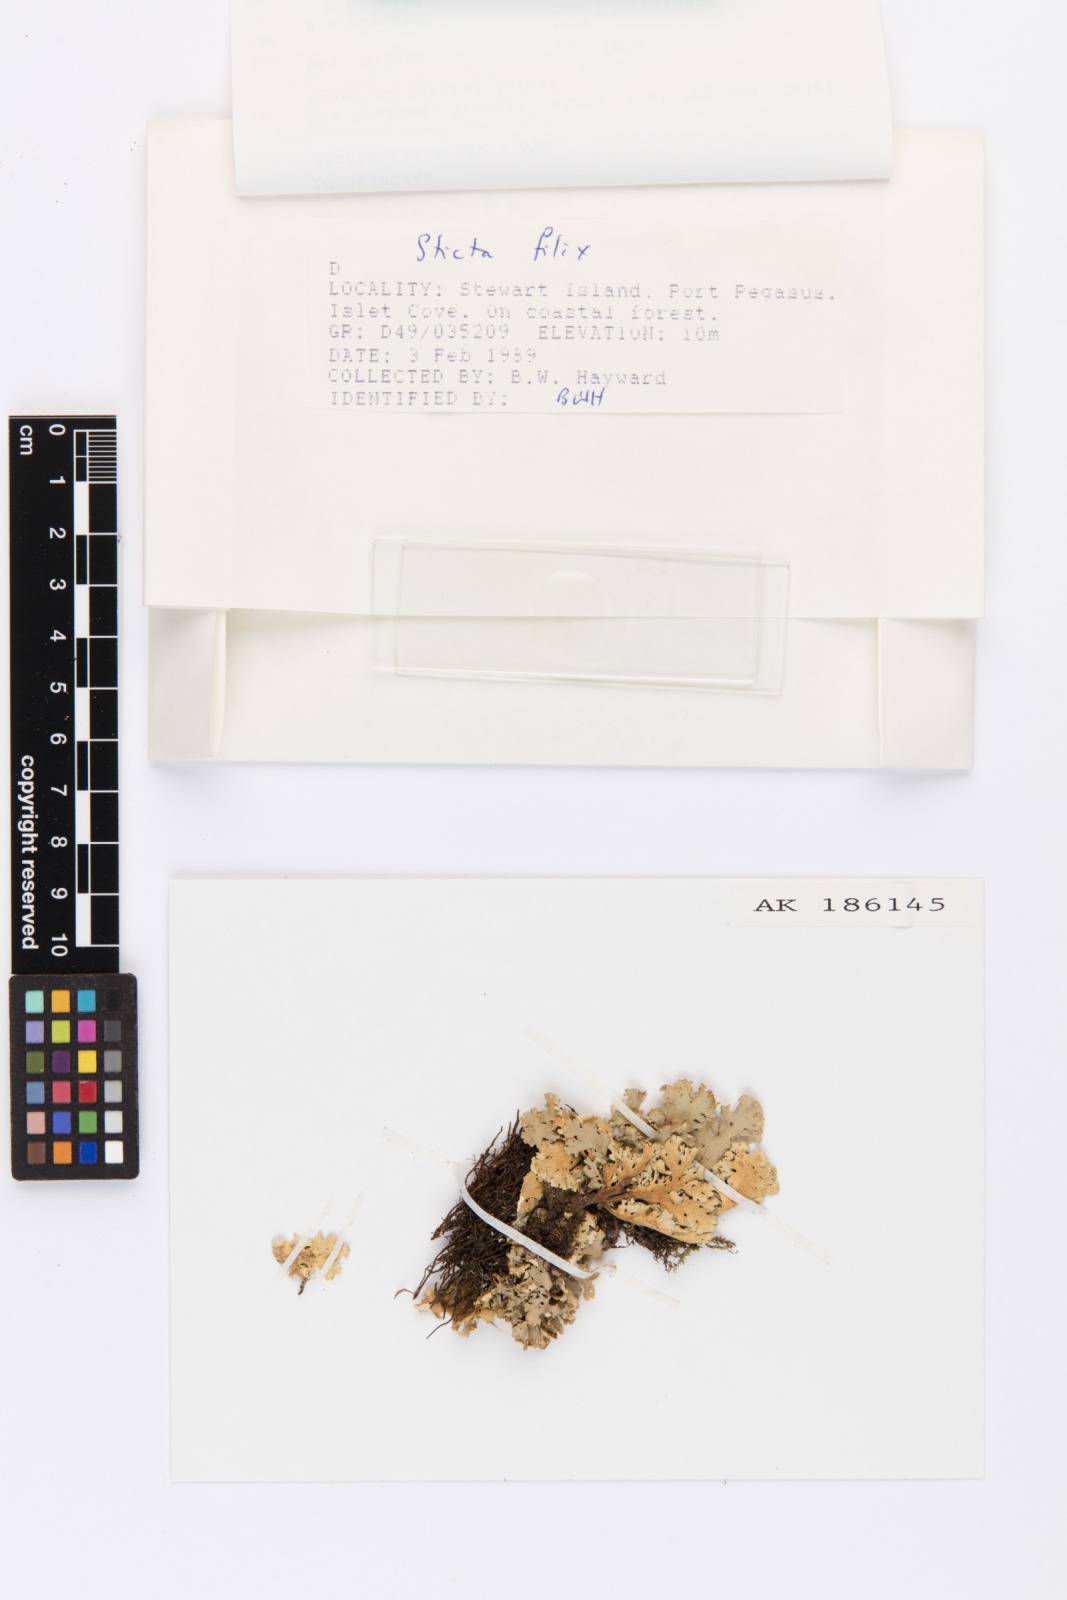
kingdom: Fungi
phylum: Ascomycota
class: Lecanoromycetes
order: Peltigerales
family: Lobariaceae
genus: Sticta
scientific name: Sticta filix
